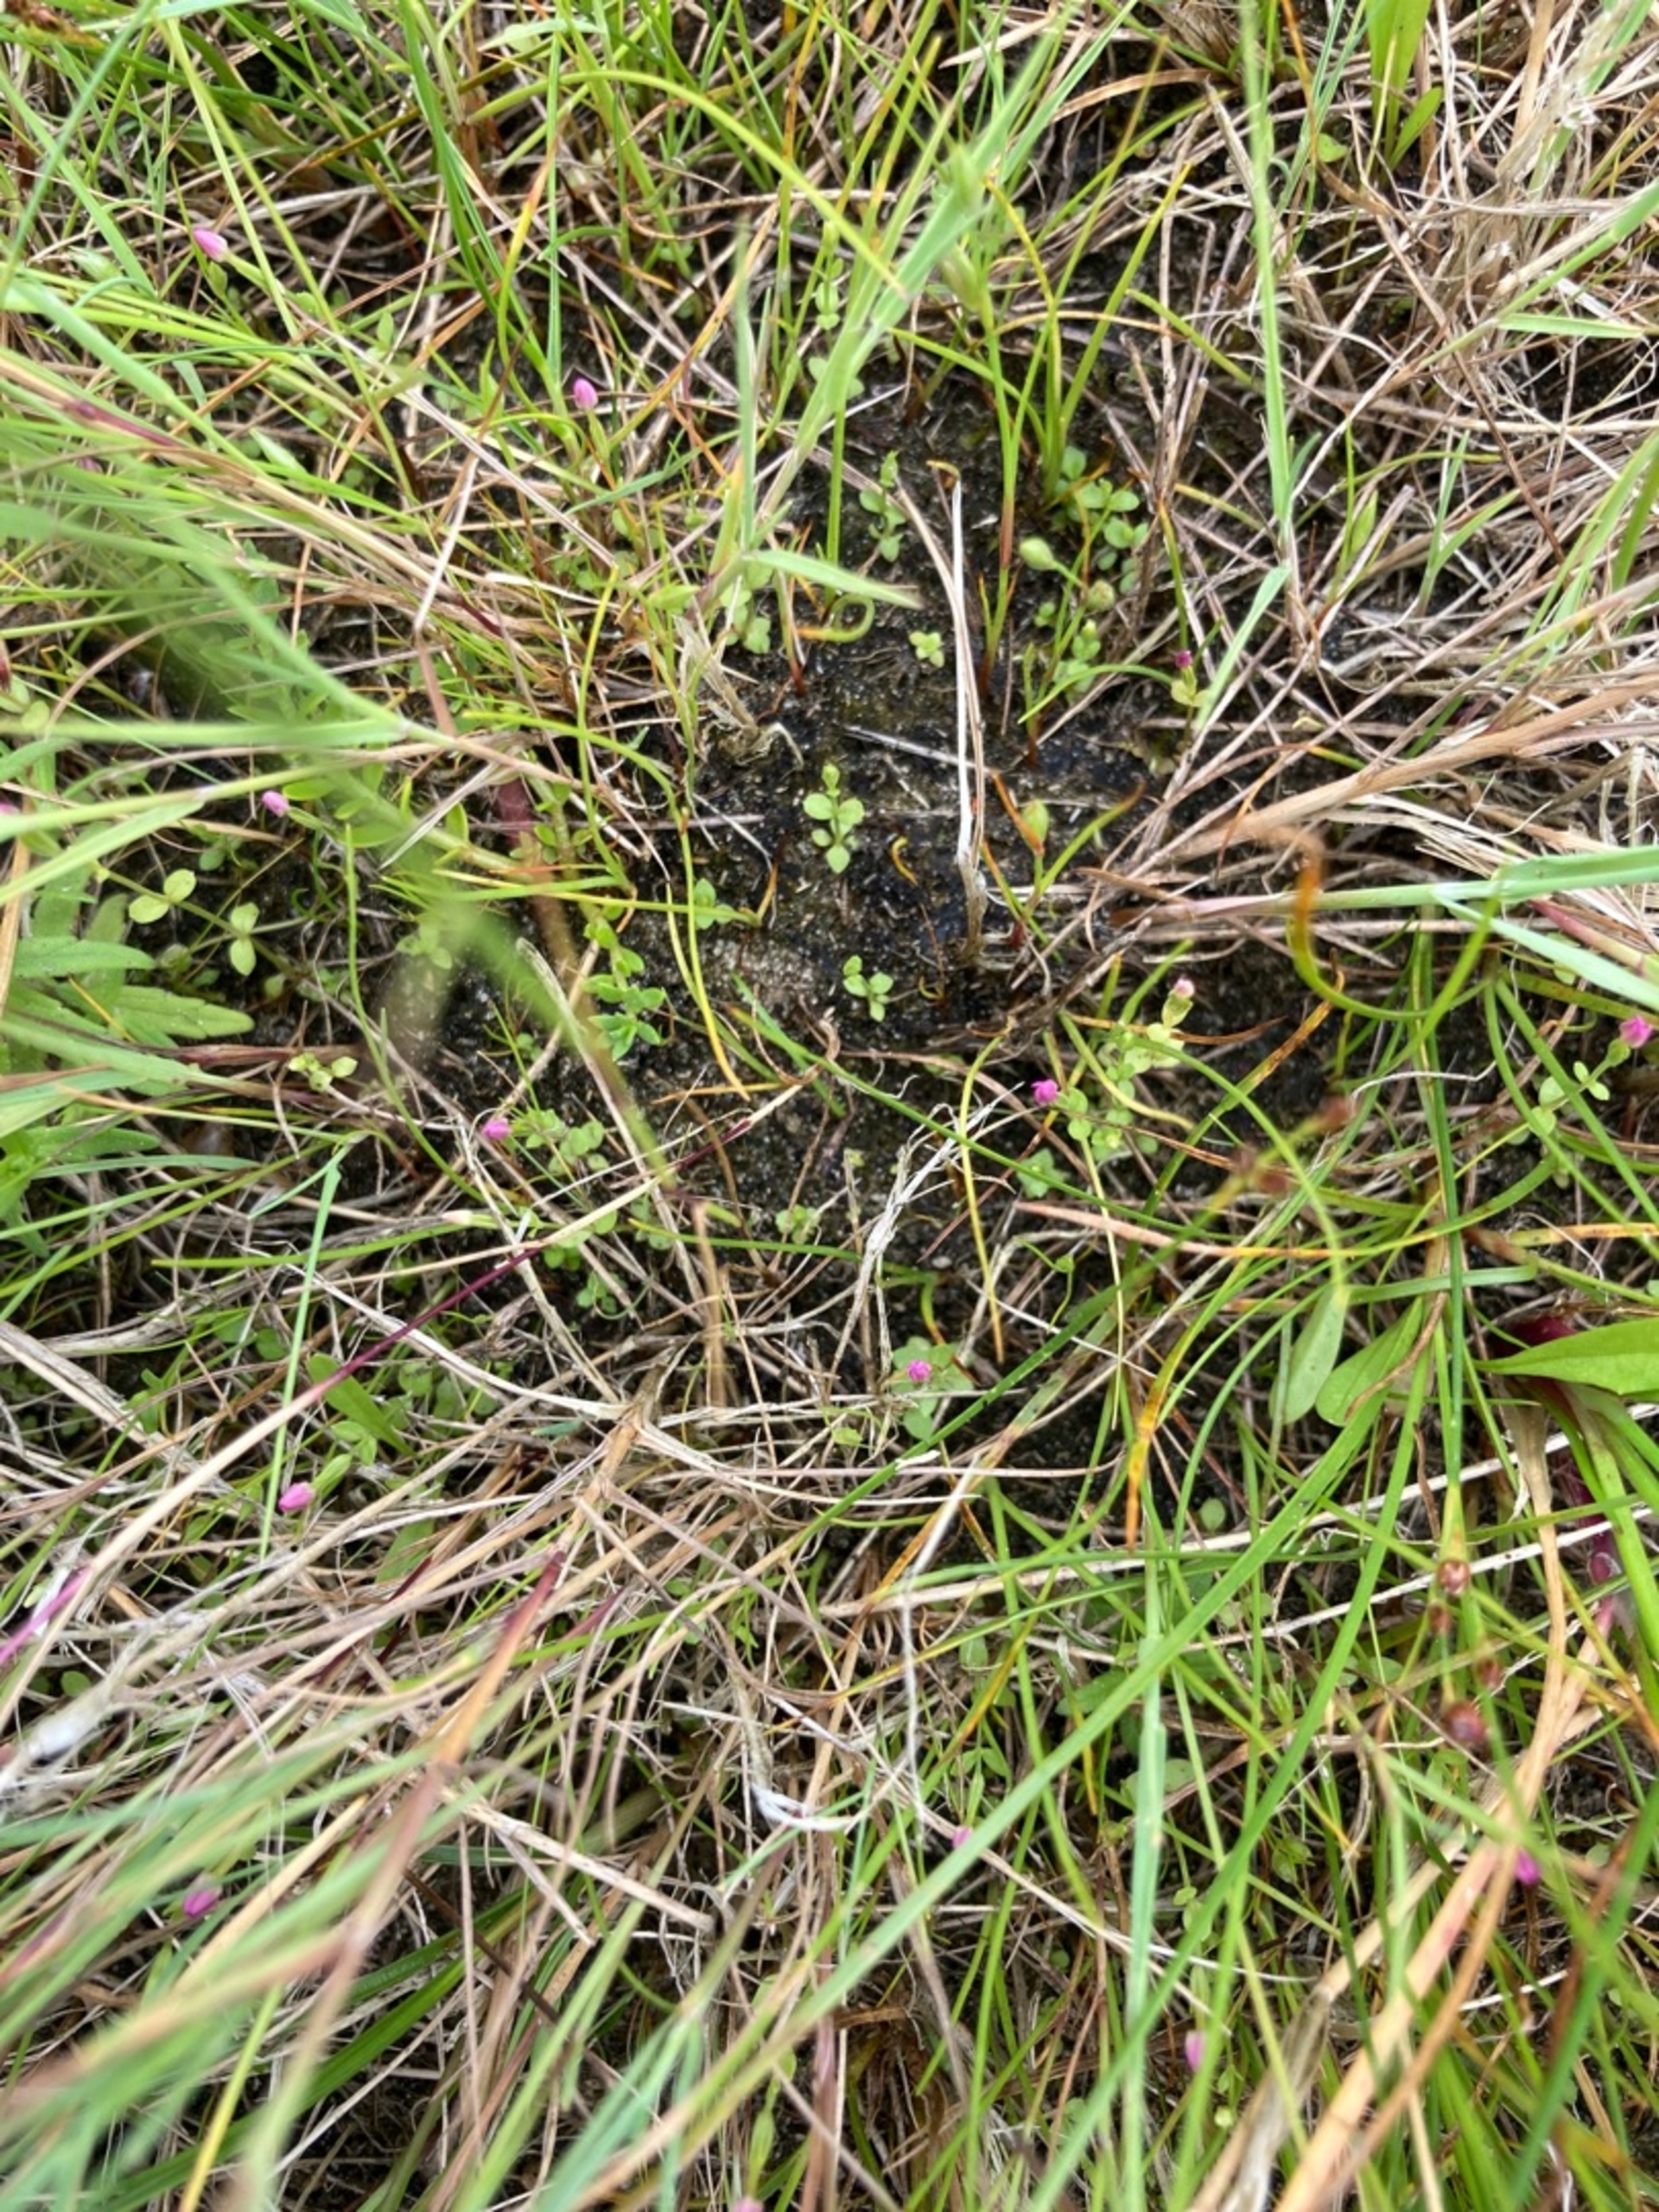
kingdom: Plantae
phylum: Tracheophyta
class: Magnoliopsida
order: Gentianales
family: Gentianaceae
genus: Centaurium
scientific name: Centaurium pulchellum
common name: Liden tusindgylden
